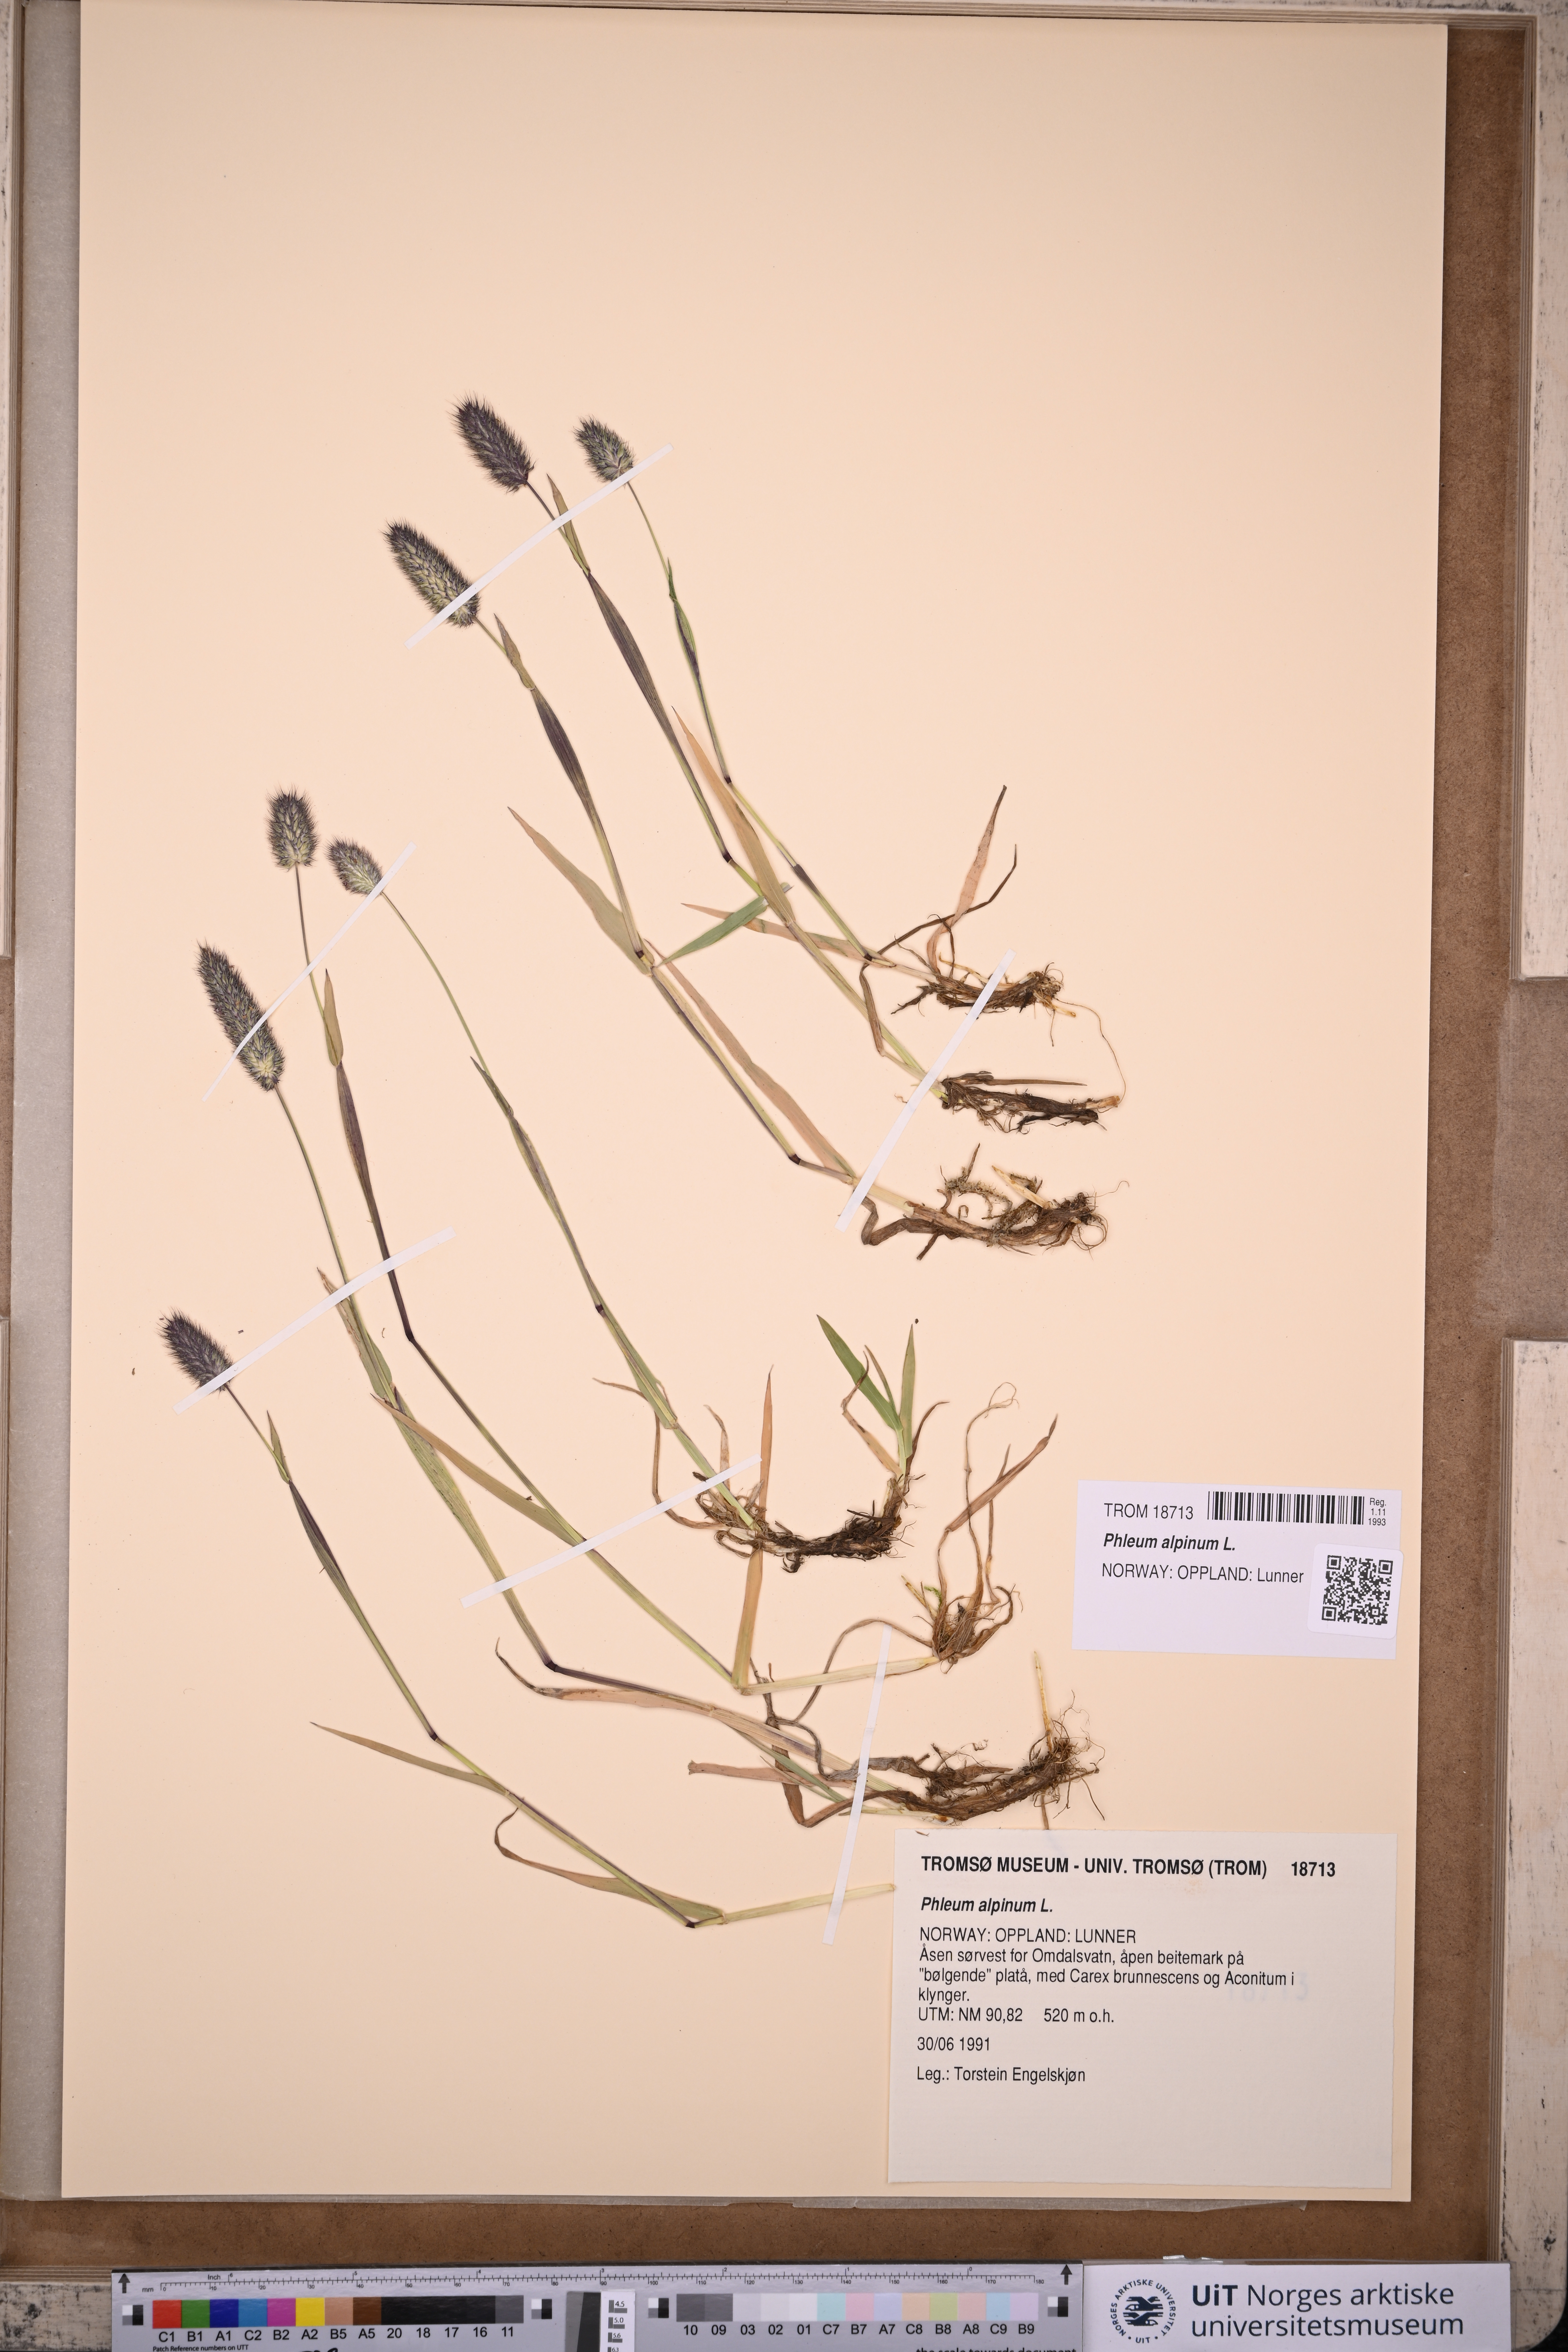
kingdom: Plantae
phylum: Tracheophyta
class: Liliopsida
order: Poales
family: Poaceae
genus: Phleum
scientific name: Phleum alpinum
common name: Alpine cat's-tail
